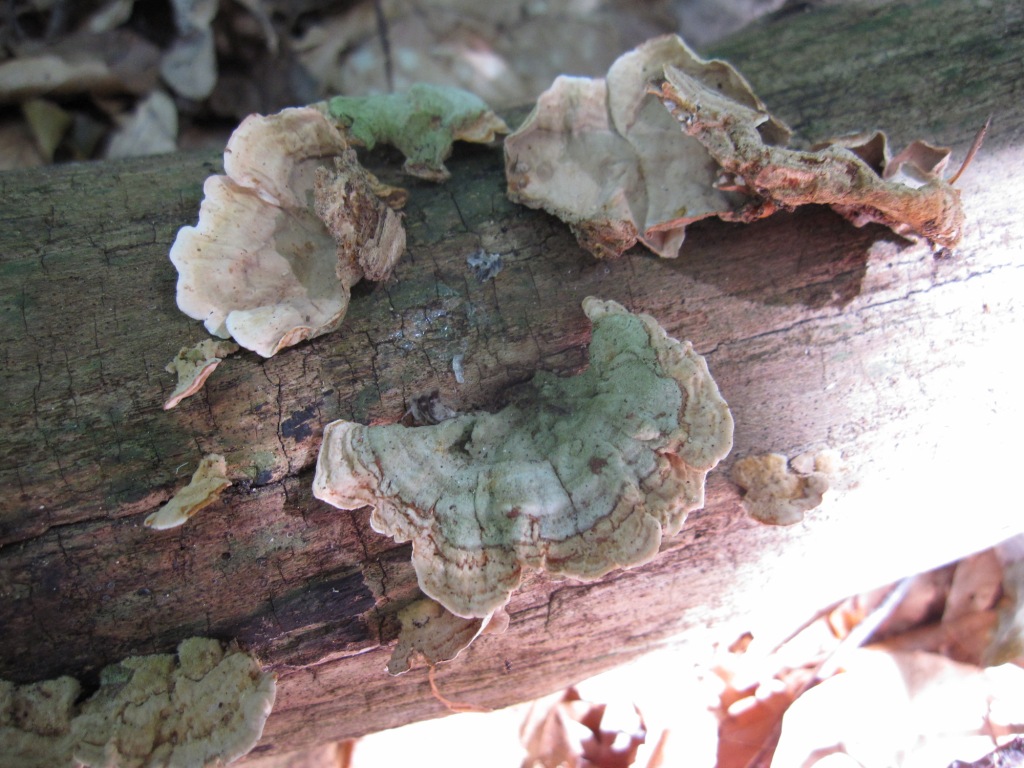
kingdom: Fungi
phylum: Basidiomycota
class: Agaricomycetes
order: Russulales
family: Stereaceae
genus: Stereum
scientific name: Stereum subtomentosum
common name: smuk lædersvamp
